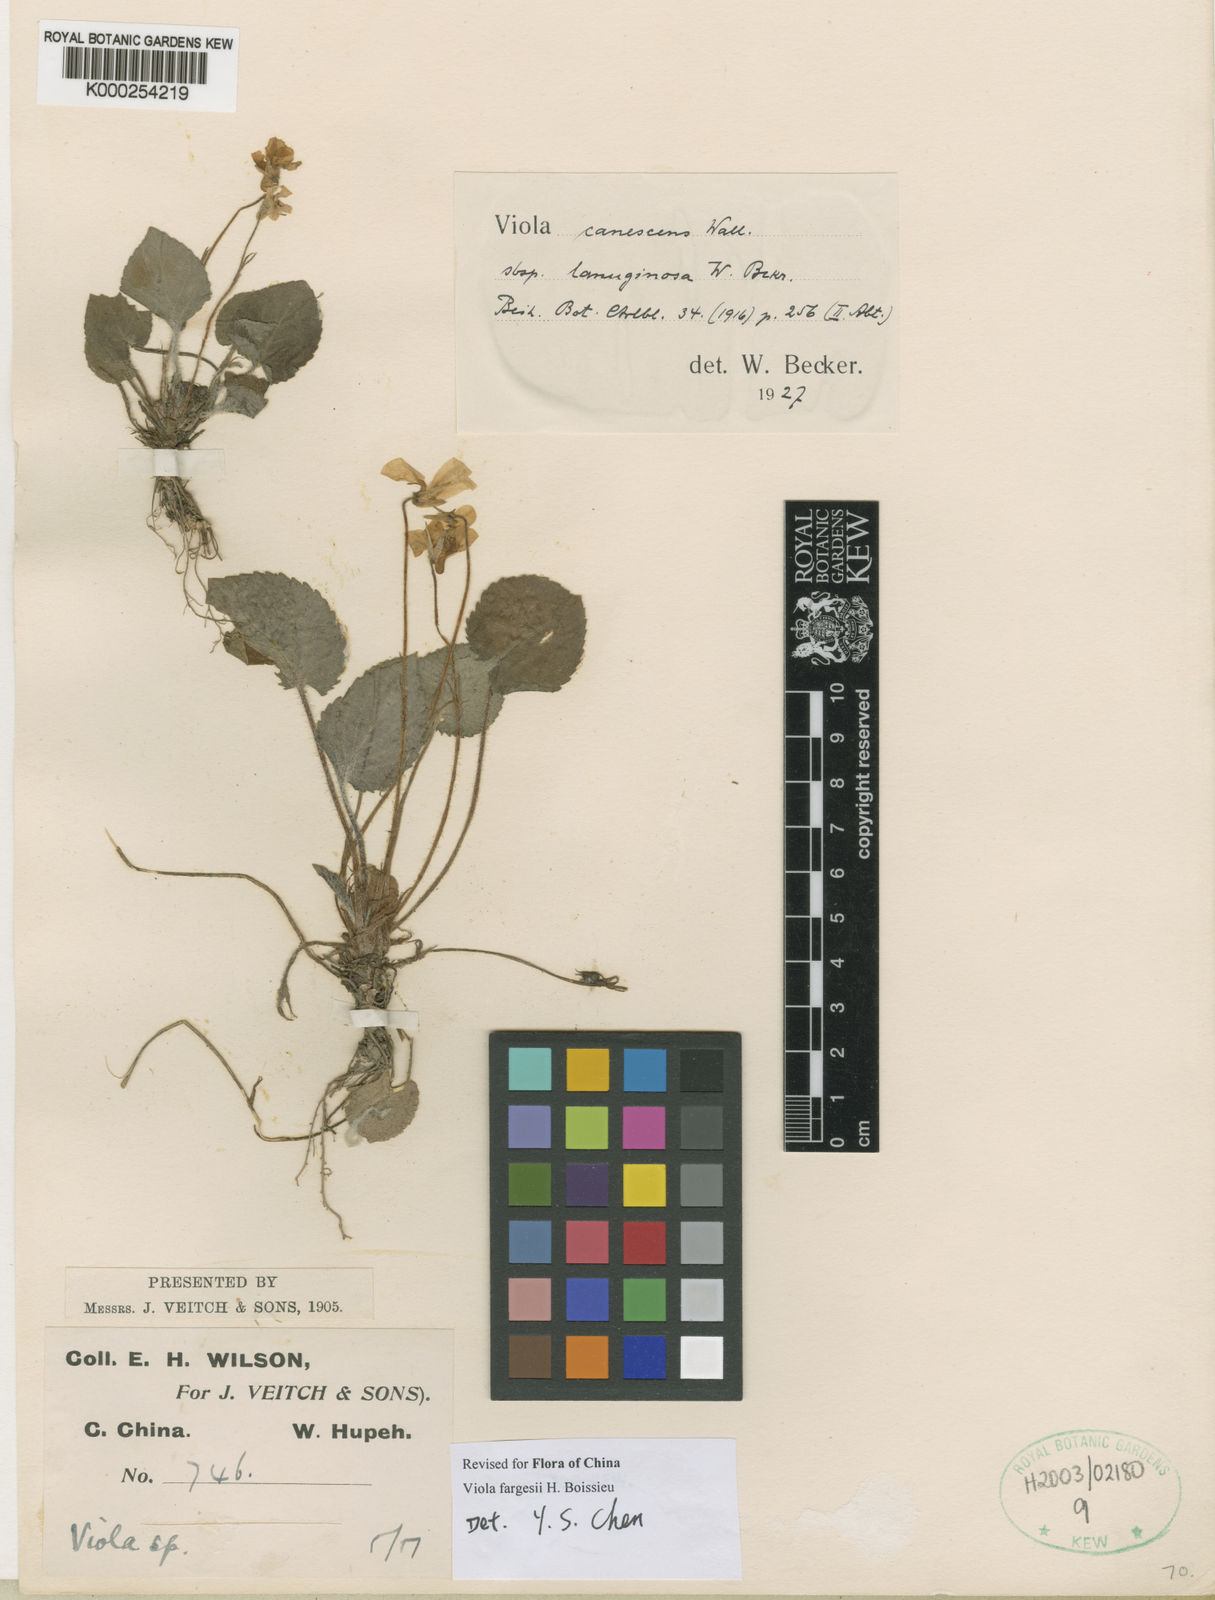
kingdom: Plantae
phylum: Tracheophyta
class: Magnoliopsida
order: Malpighiales
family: Violaceae
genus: Viola
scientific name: Viola canescens
